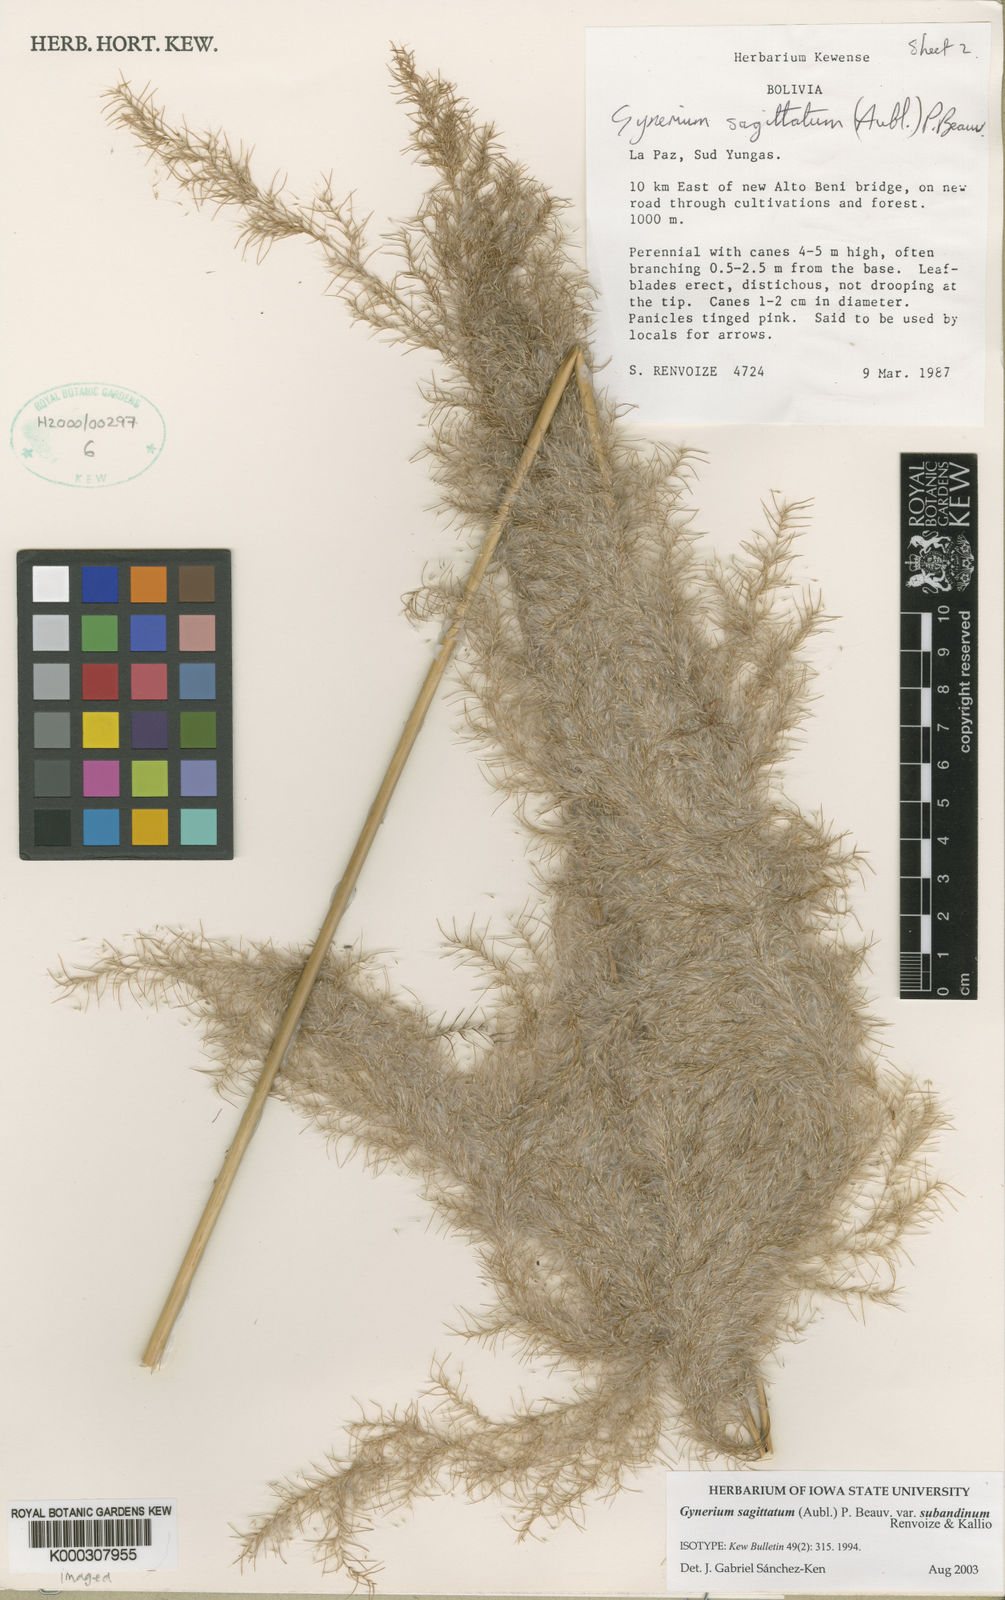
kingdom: Plantae
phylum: Tracheophyta
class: Liliopsida
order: Poales
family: Poaceae
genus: Gynerium
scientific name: Gynerium sagittatum
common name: Wild cane
